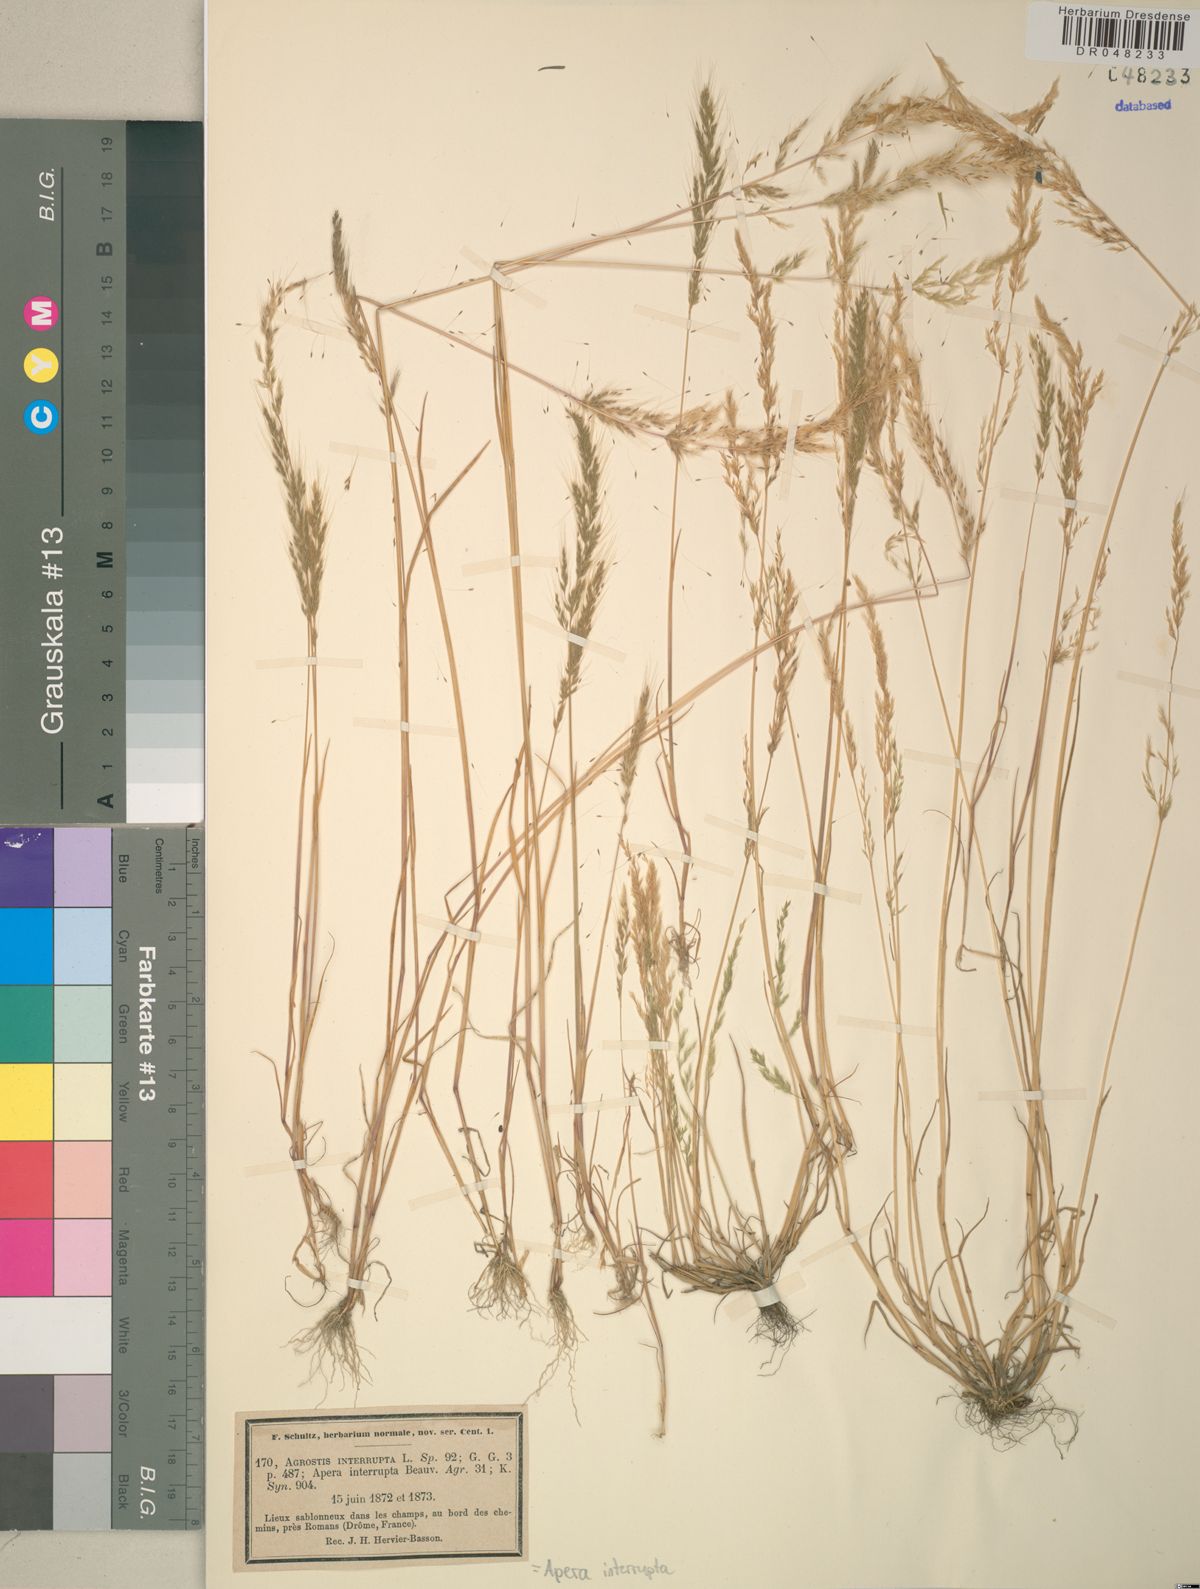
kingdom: Plantae
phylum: Tracheophyta
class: Liliopsida
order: Poales
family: Poaceae
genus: Apera
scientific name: Apera interrupta
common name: Dense silky-bent
